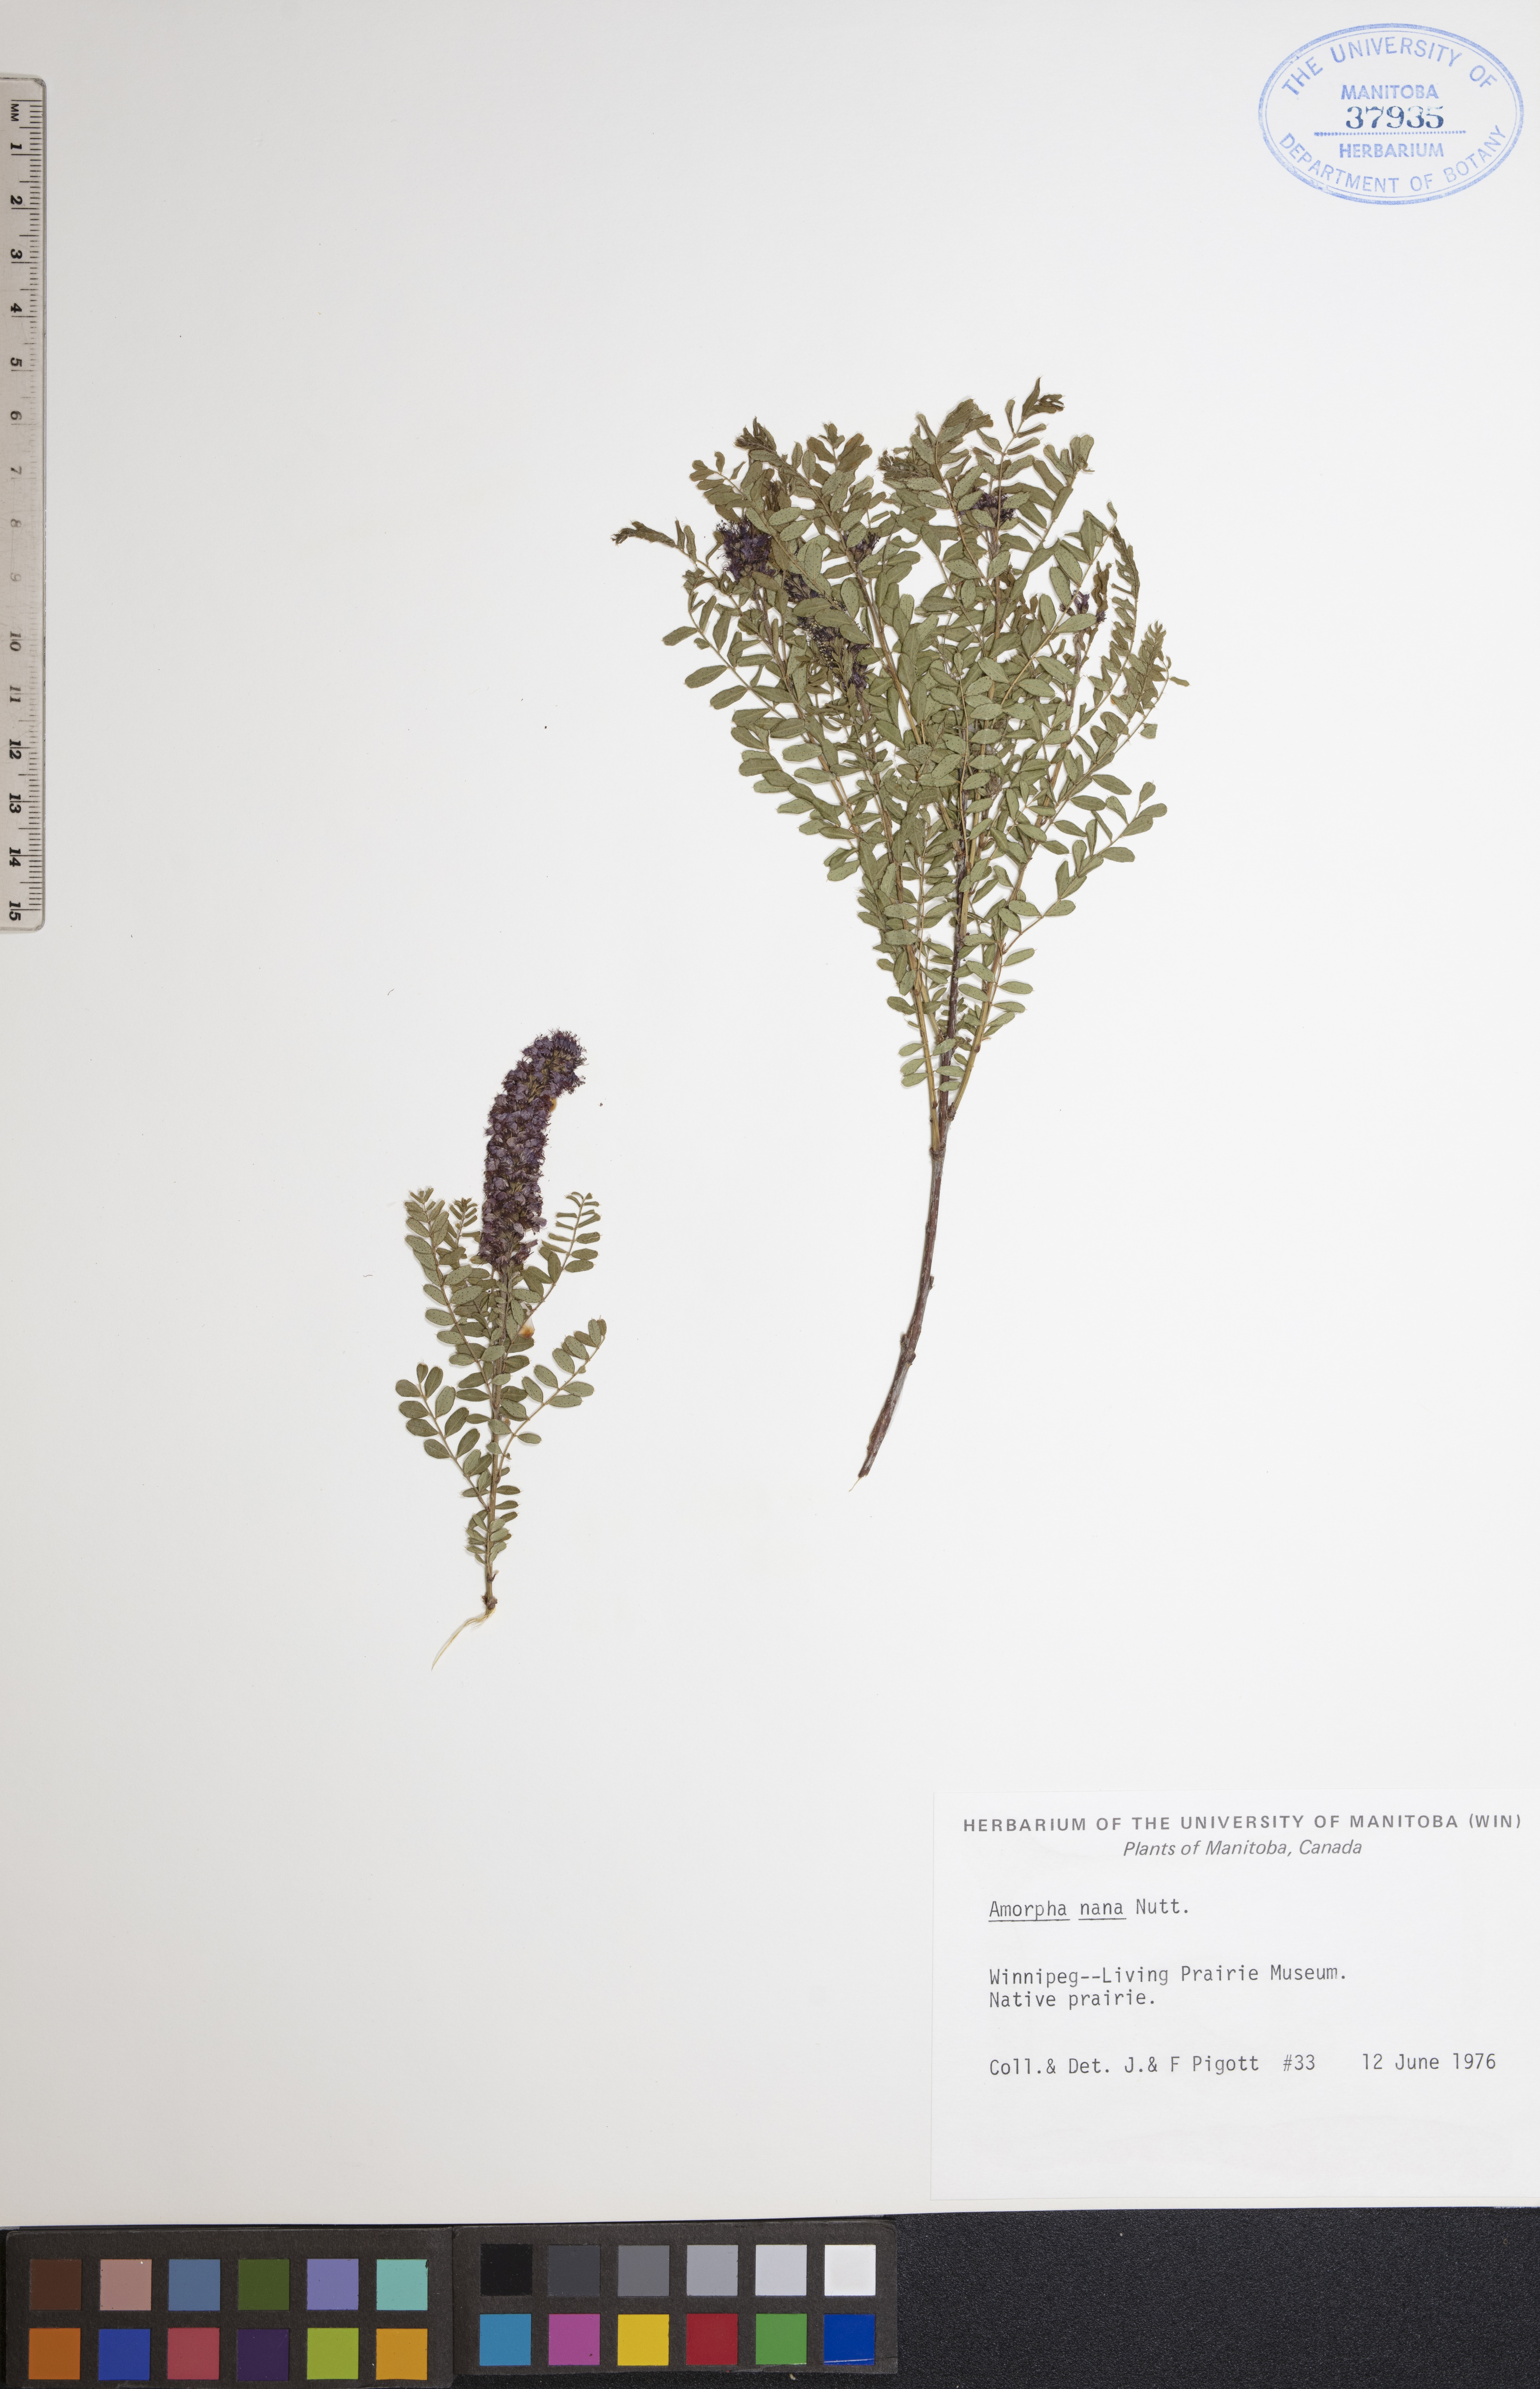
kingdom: Plantae
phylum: Tracheophyta
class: Magnoliopsida
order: Fabales
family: Fabaceae
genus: Amorpha
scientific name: Amorpha nana
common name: Fragrant false indigo
